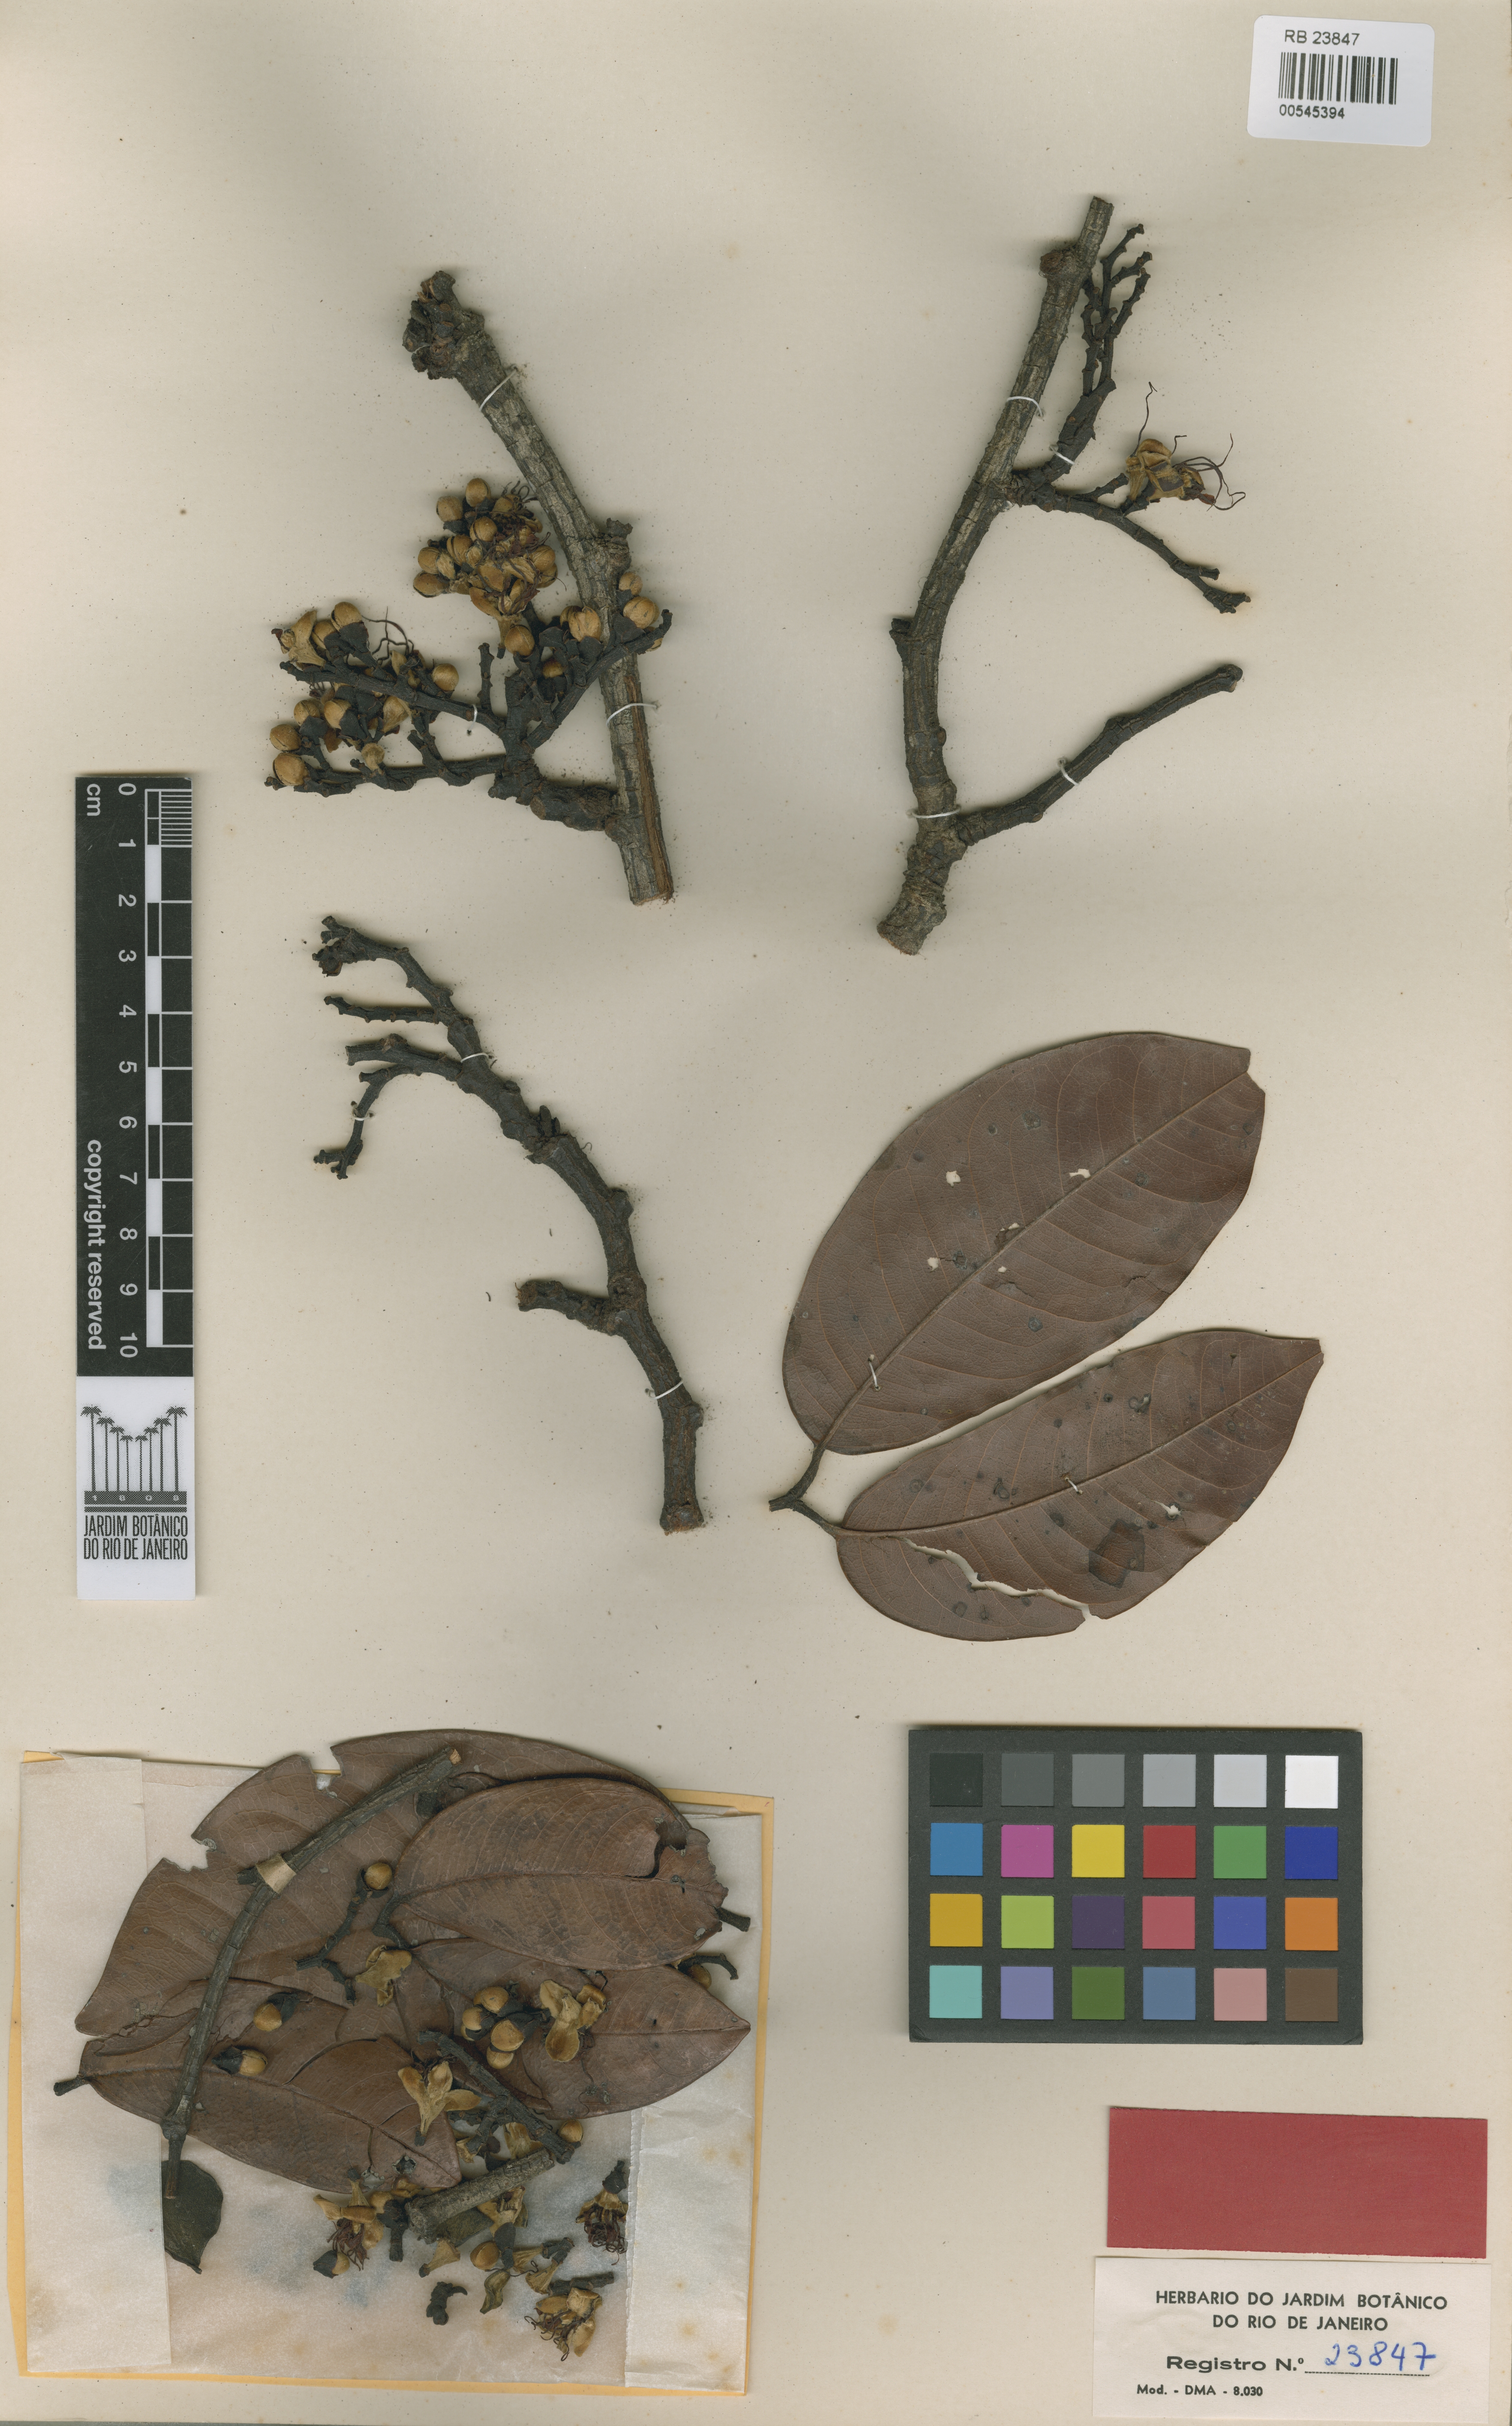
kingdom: Plantae
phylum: Tracheophyta
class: Magnoliopsida
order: Fabales
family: Fabaceae
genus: Peltogyne
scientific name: Peltogyne campestris
